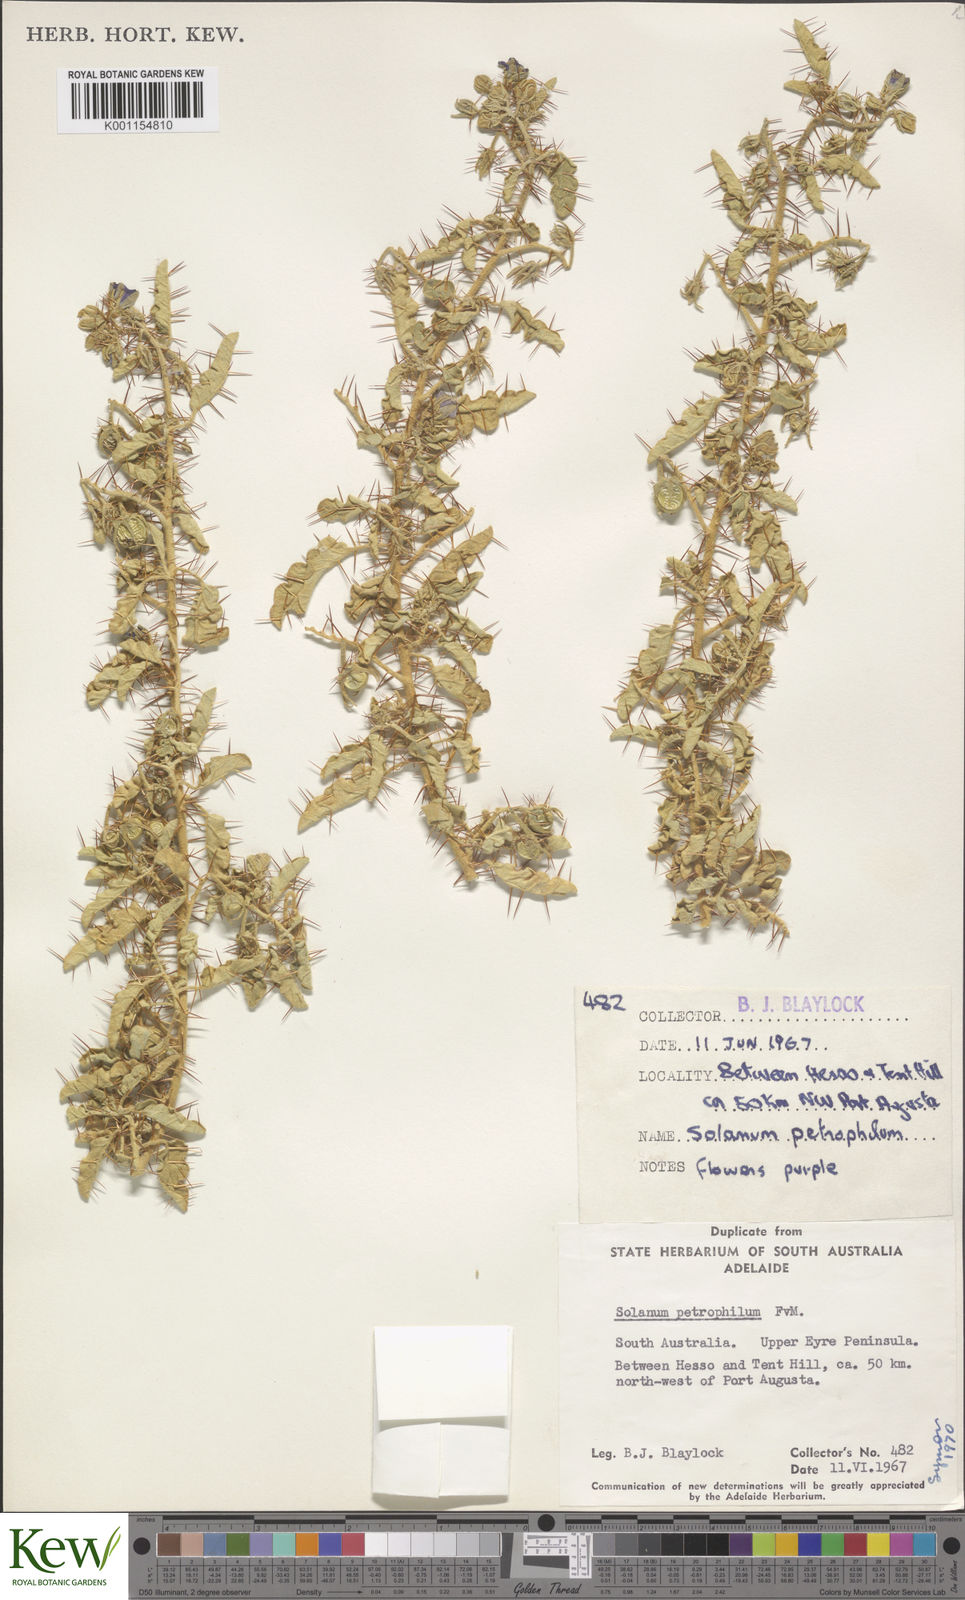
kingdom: Plantae
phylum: Tracheophyta
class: Magnoliopsida
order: Solanales
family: Solanaceae
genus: Solanum
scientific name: Solanum petrophilum
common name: Rock nightshade
